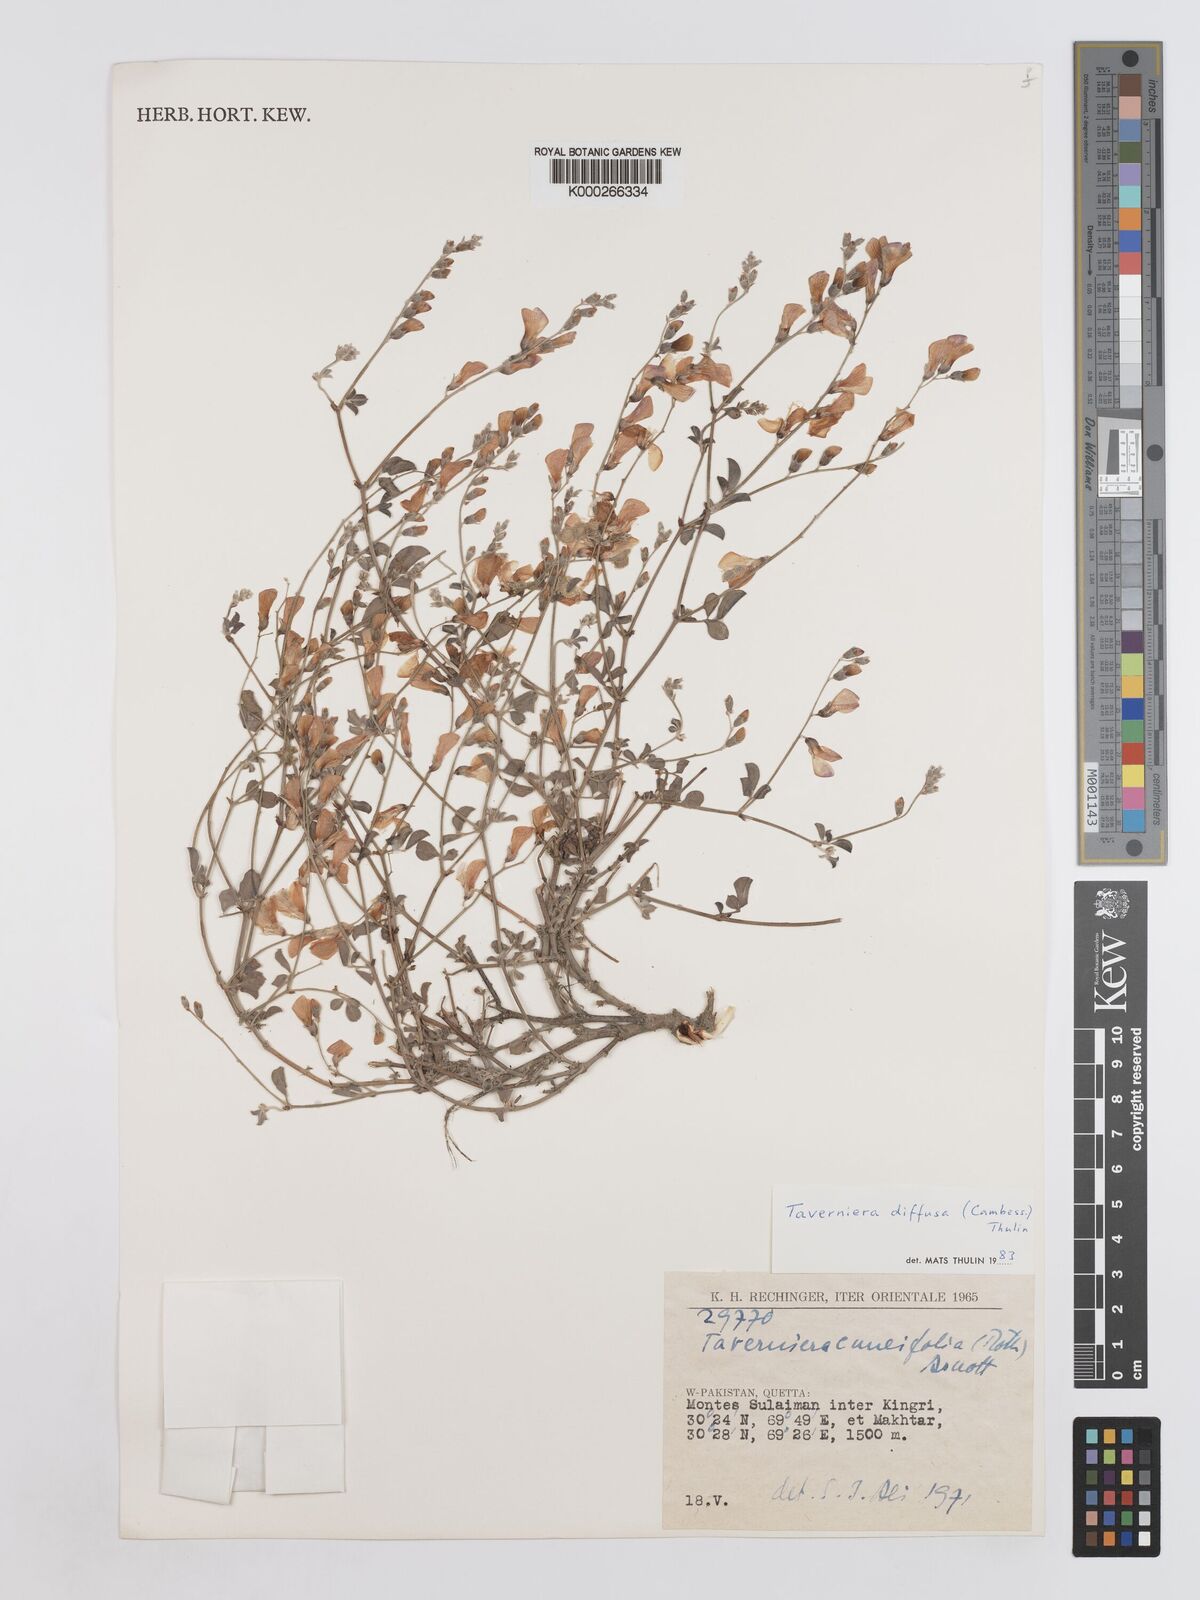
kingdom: Plantae
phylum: Tracheophyta
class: Magnoliopsida
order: Fabales
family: Fabaceae
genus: Taverniera
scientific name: Taverniera diffusa
